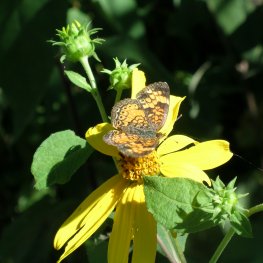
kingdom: Animalia
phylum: Arthropoda
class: Insecta
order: Lepidoptera
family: Nymphalidae
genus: Phyciodes
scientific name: Phyciodes tharos
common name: Northern Crescent
